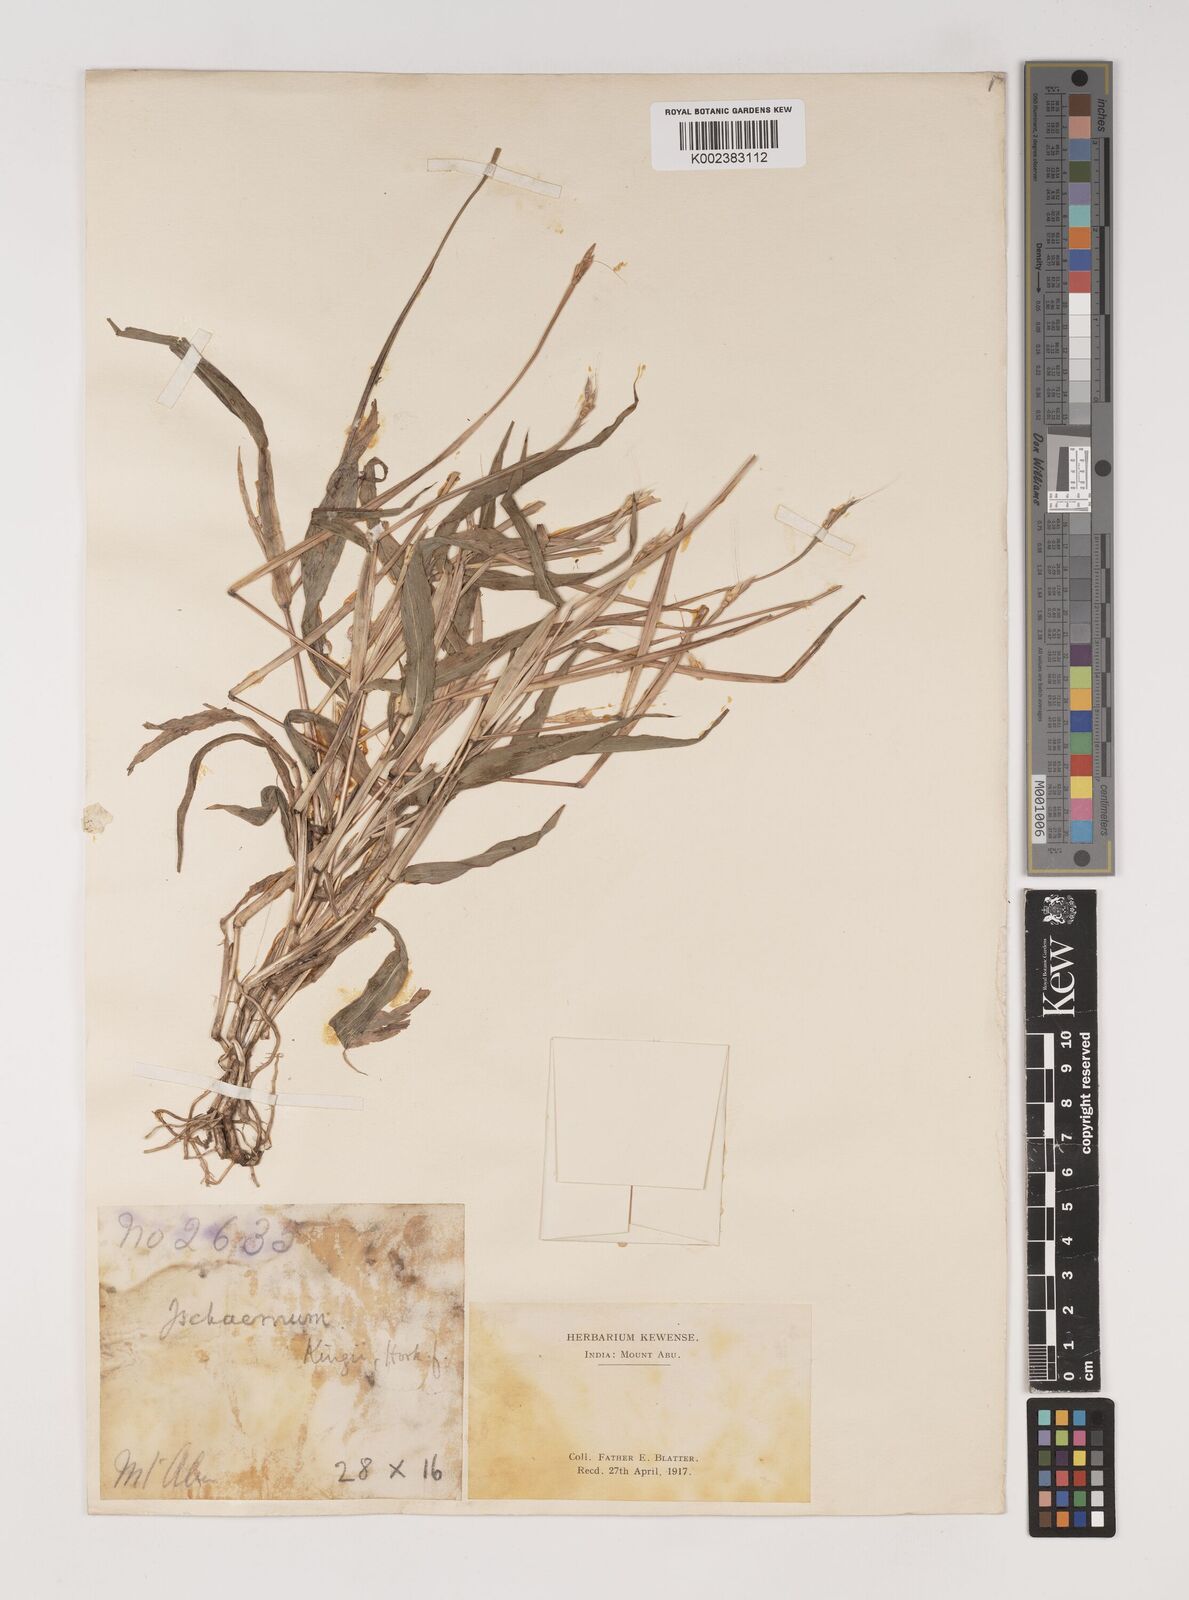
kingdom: Plantae
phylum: Tracheophyta
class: Liliopsida
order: Poales
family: Poaceae
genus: Ischaemum
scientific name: Ischaemum kingii
